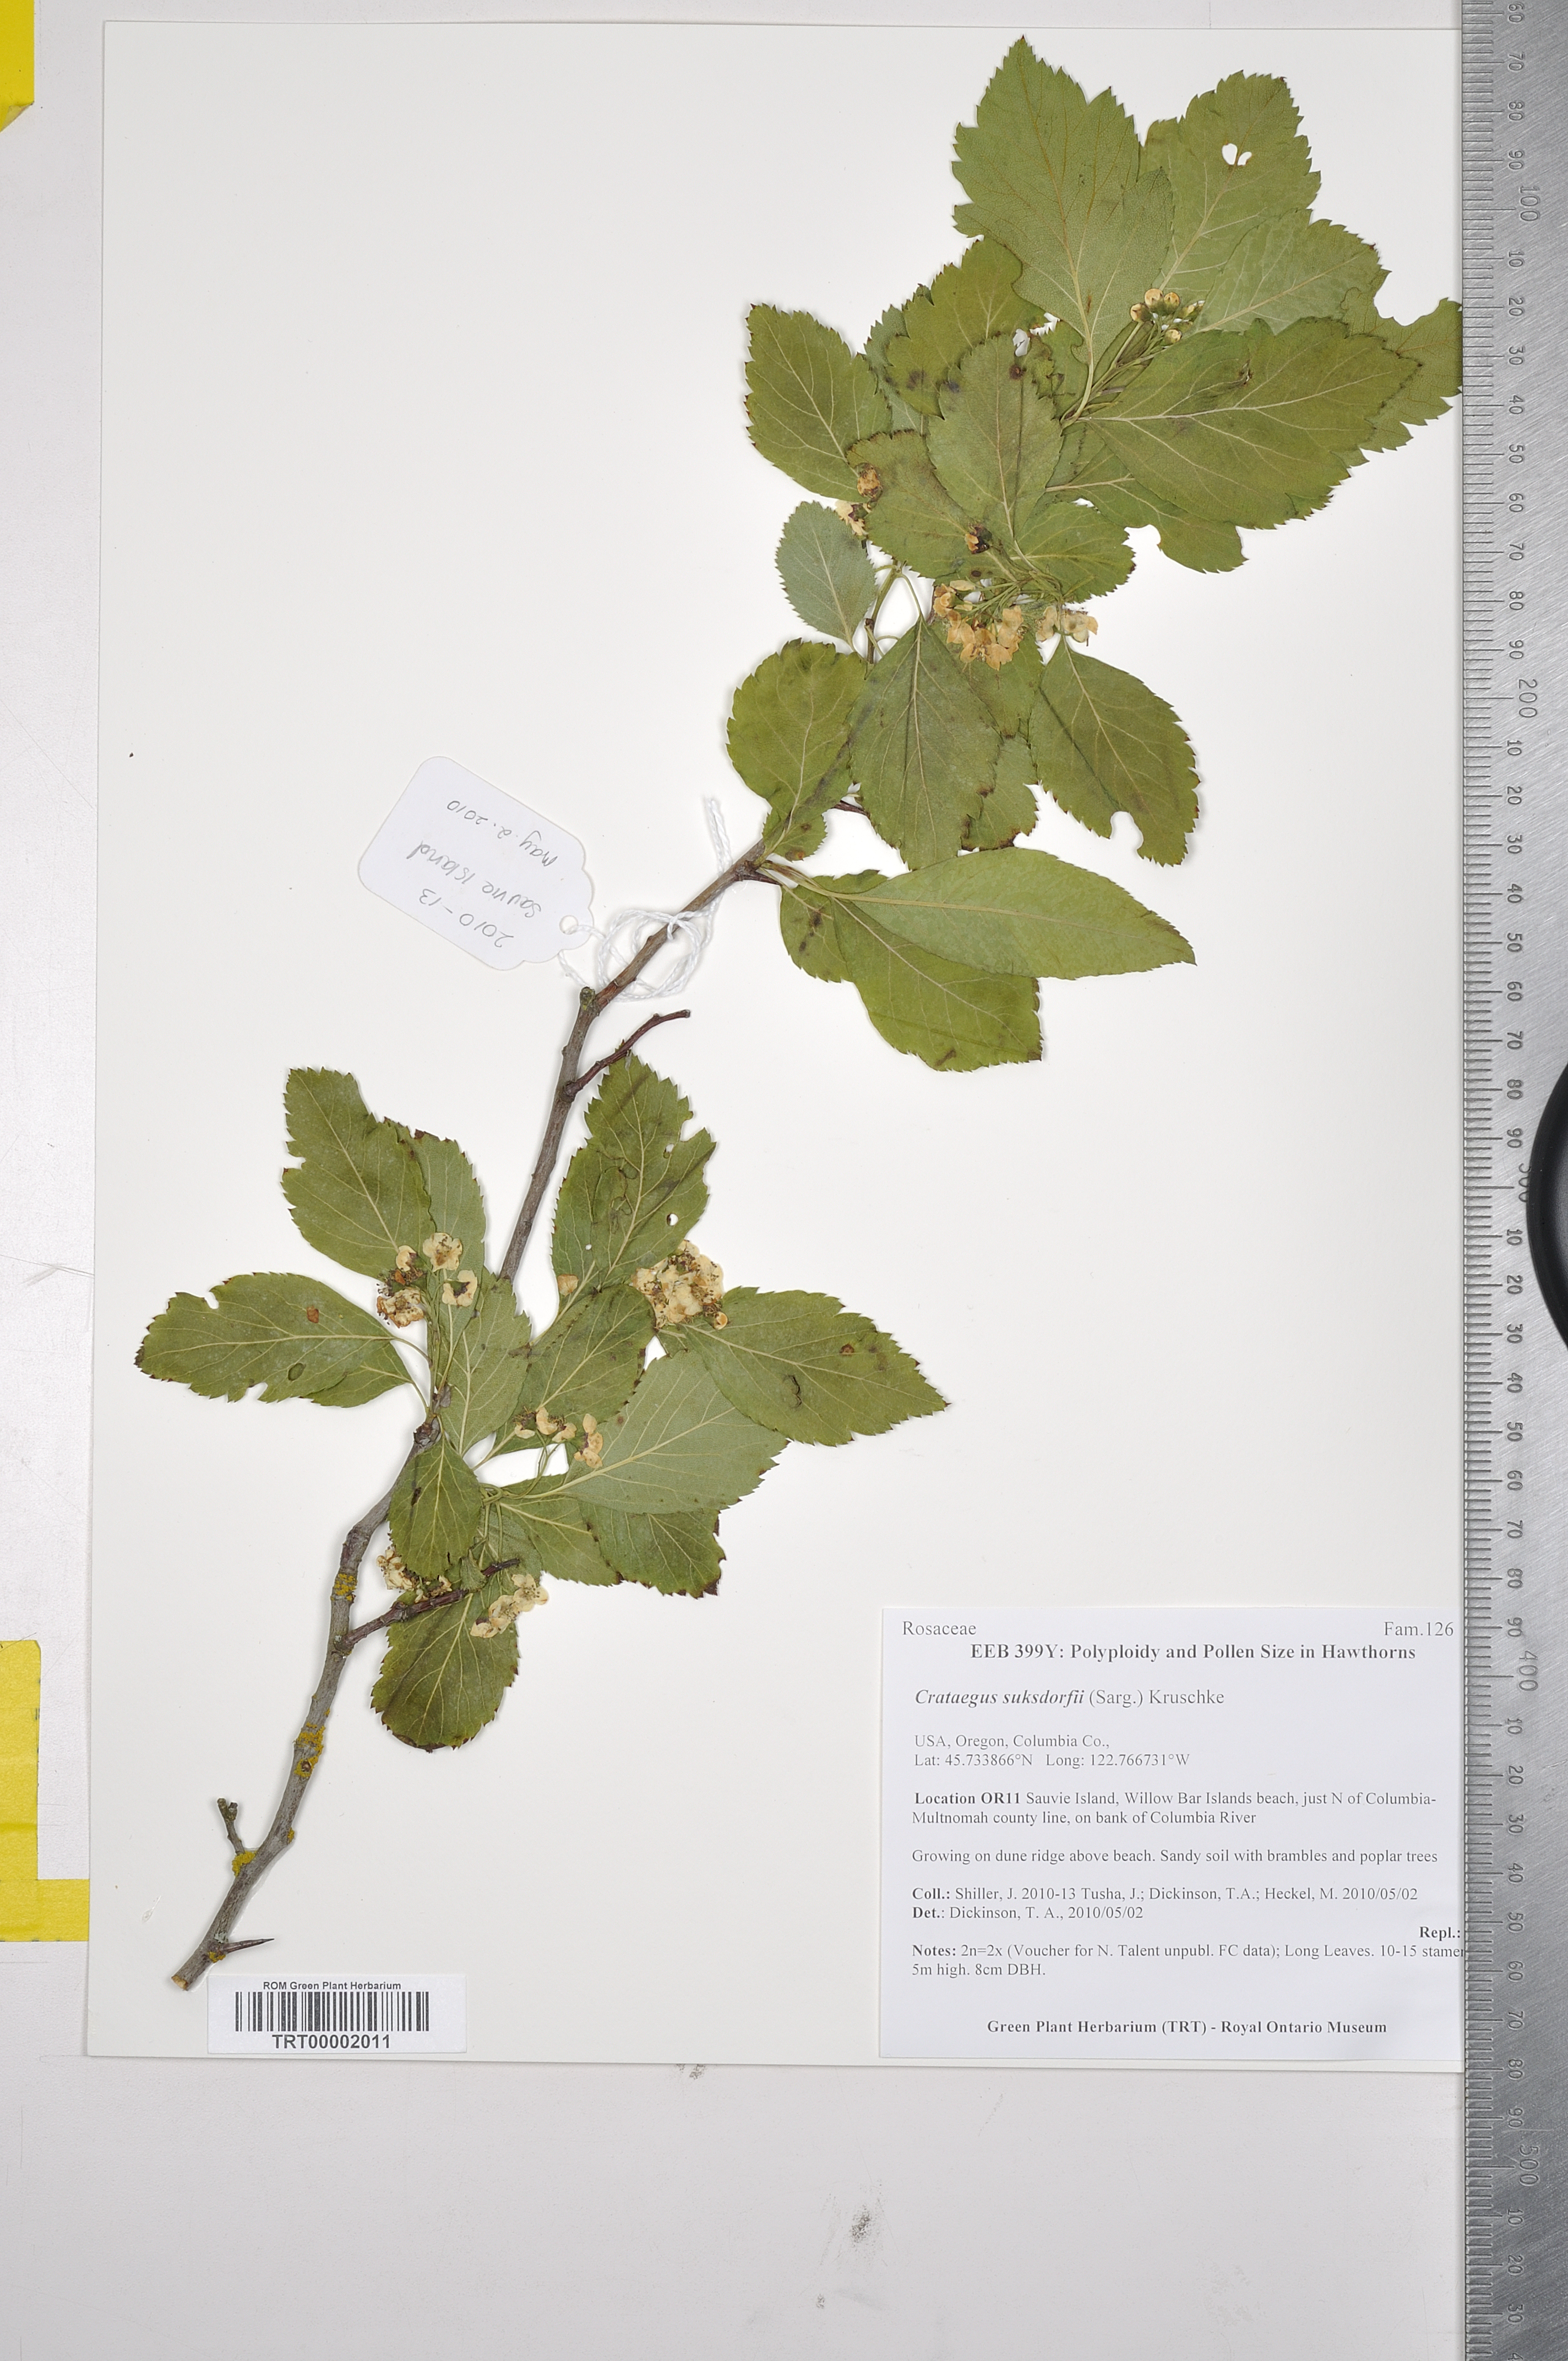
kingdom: Plantae
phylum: Tracheophyta
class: Magnoliopsida
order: Rosales
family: Rosaceae
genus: Crataegus
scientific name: Crataegus gaylussacia
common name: Huckleberry hawthorn
